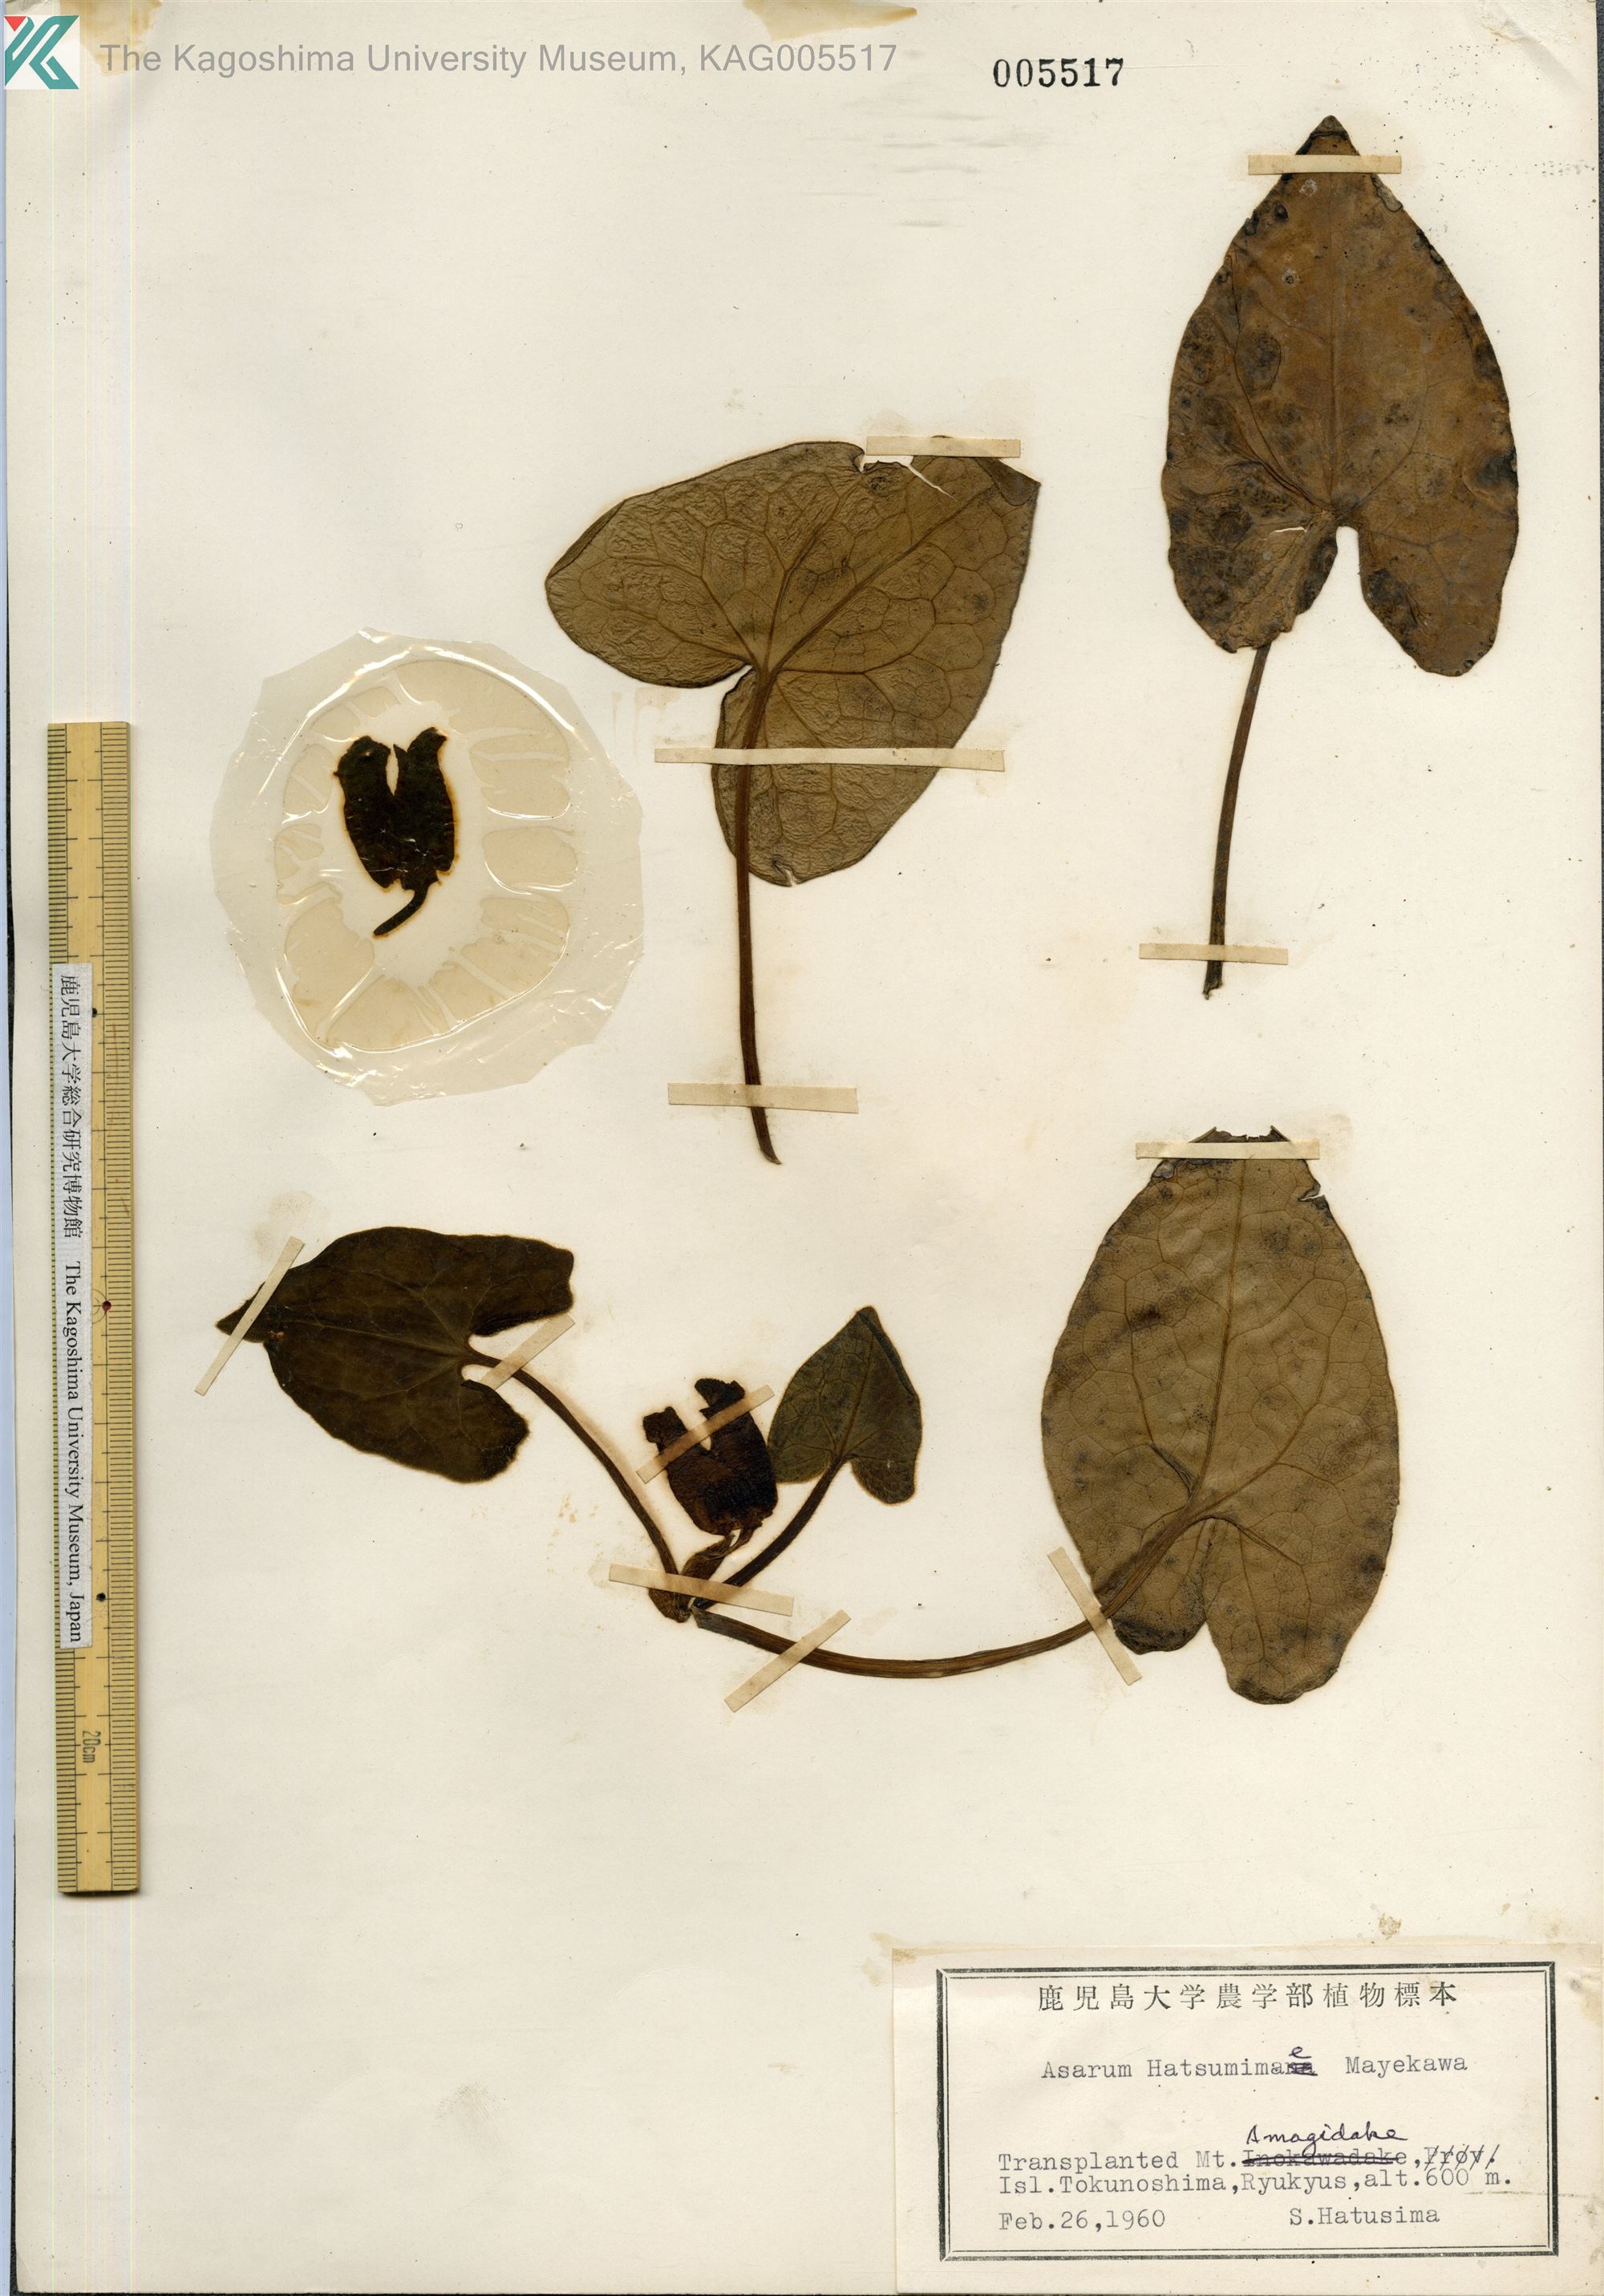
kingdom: Plantae
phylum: Tracheophyta
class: Magnoliopsida
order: Piperales
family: Aristolochiaceae
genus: Asarum
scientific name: Asarum hatushimae
